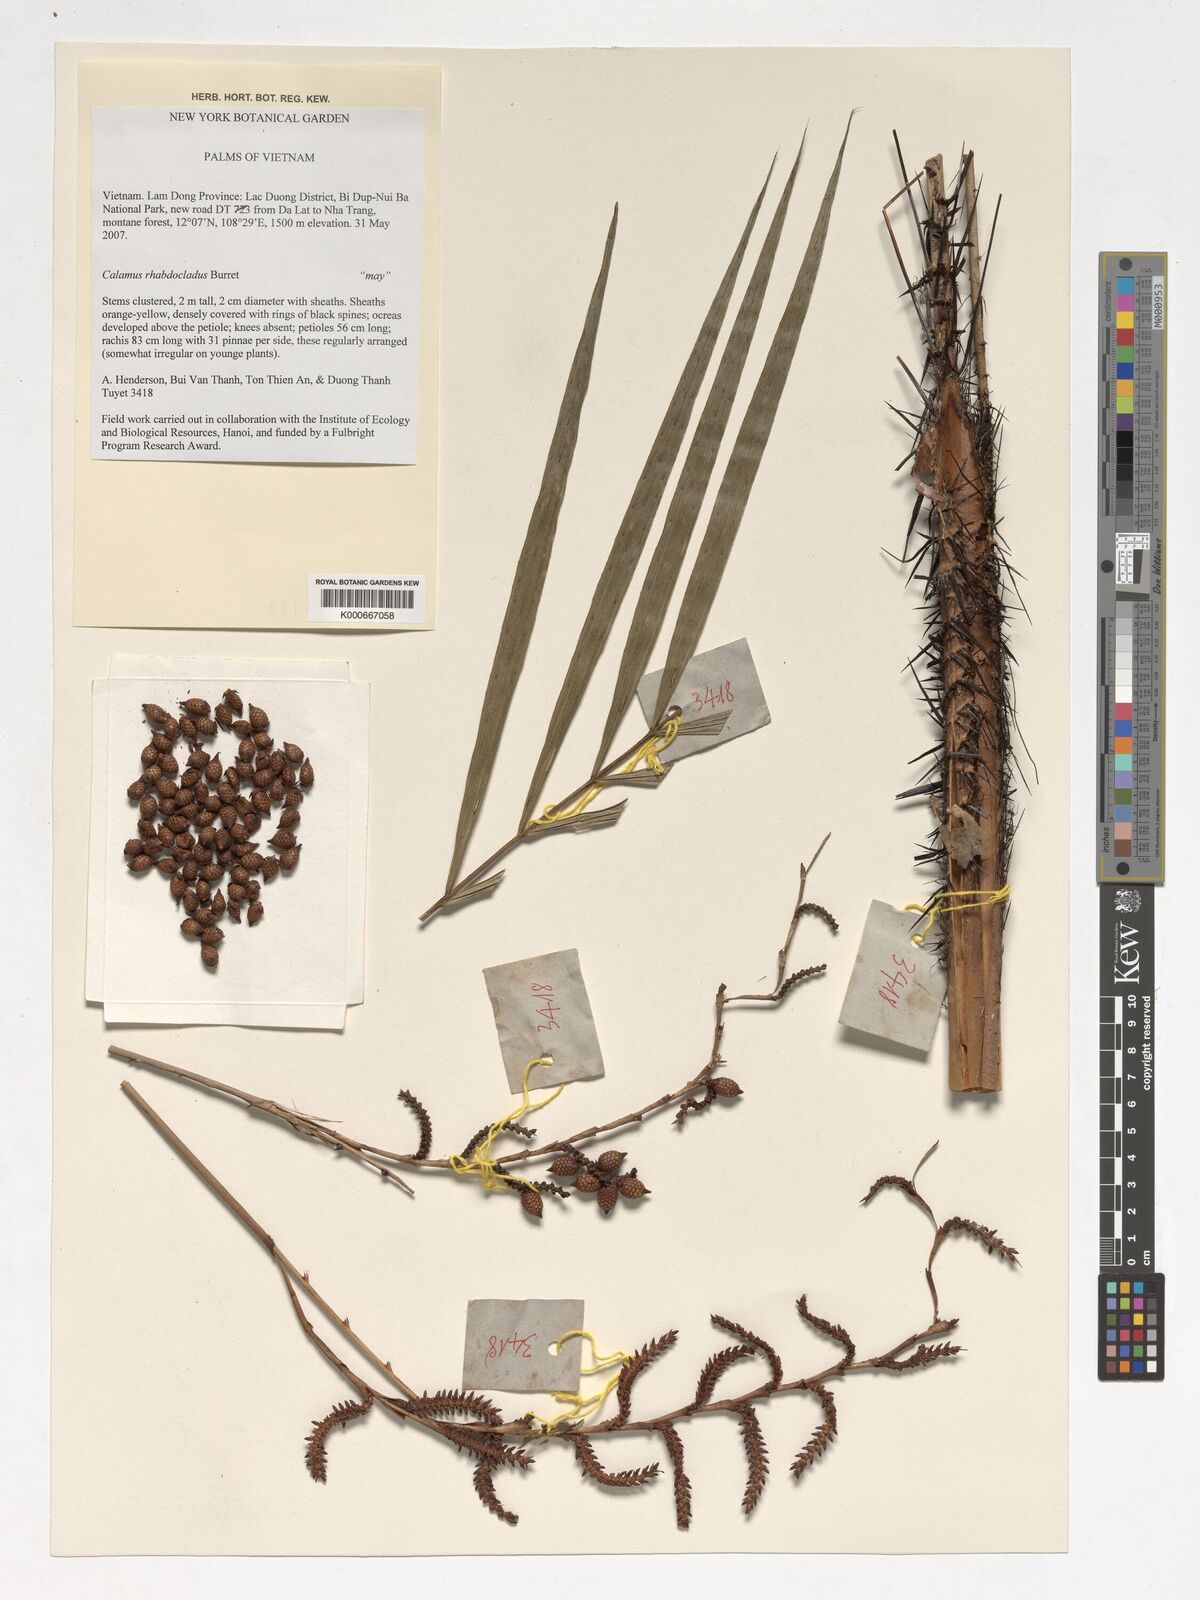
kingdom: Plantae
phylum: Tracheophyta
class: Liliopsida
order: Arecales
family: Arecaceae
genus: Calamus
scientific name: Calamus rhabdocladus
